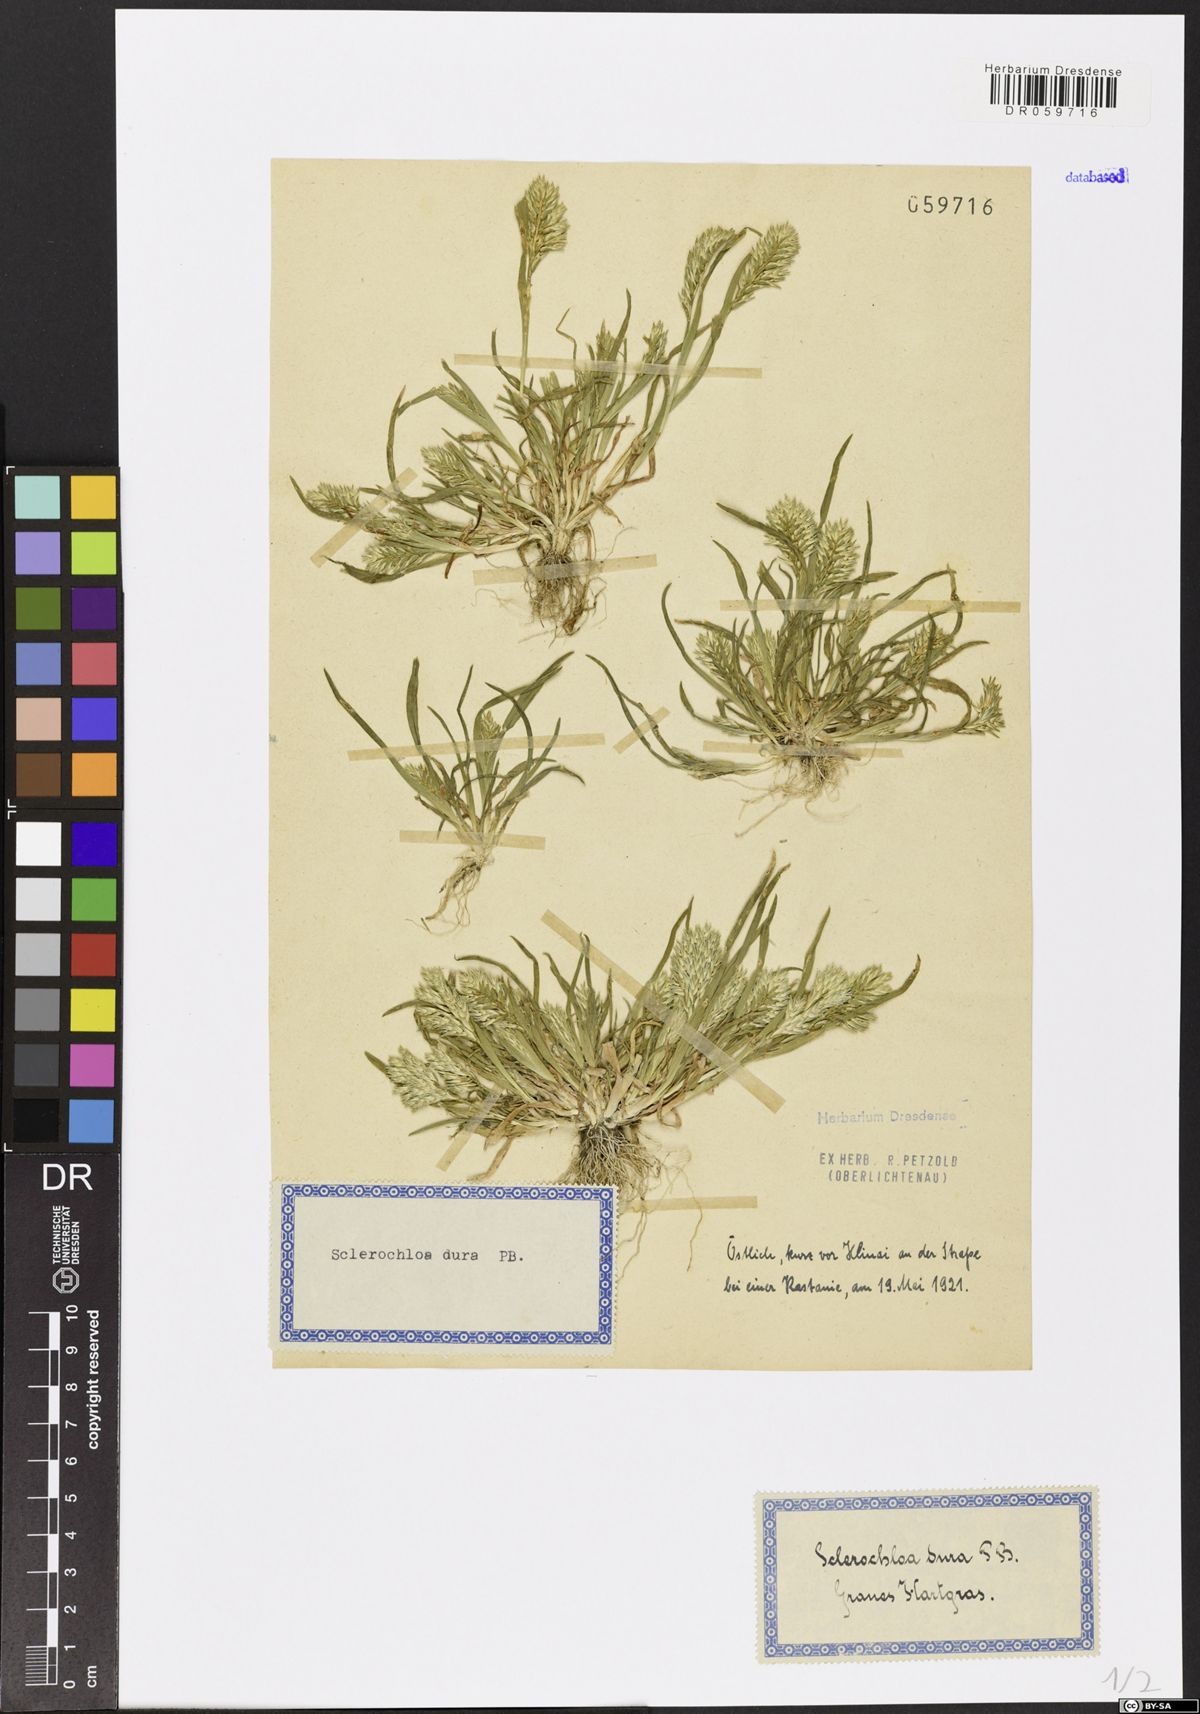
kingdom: Plantae
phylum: Tracheophyta
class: Liliopsida
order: Poales
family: Poaceae
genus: Sclerochloa
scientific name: Sclerochloa dura
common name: Common hardgrass
